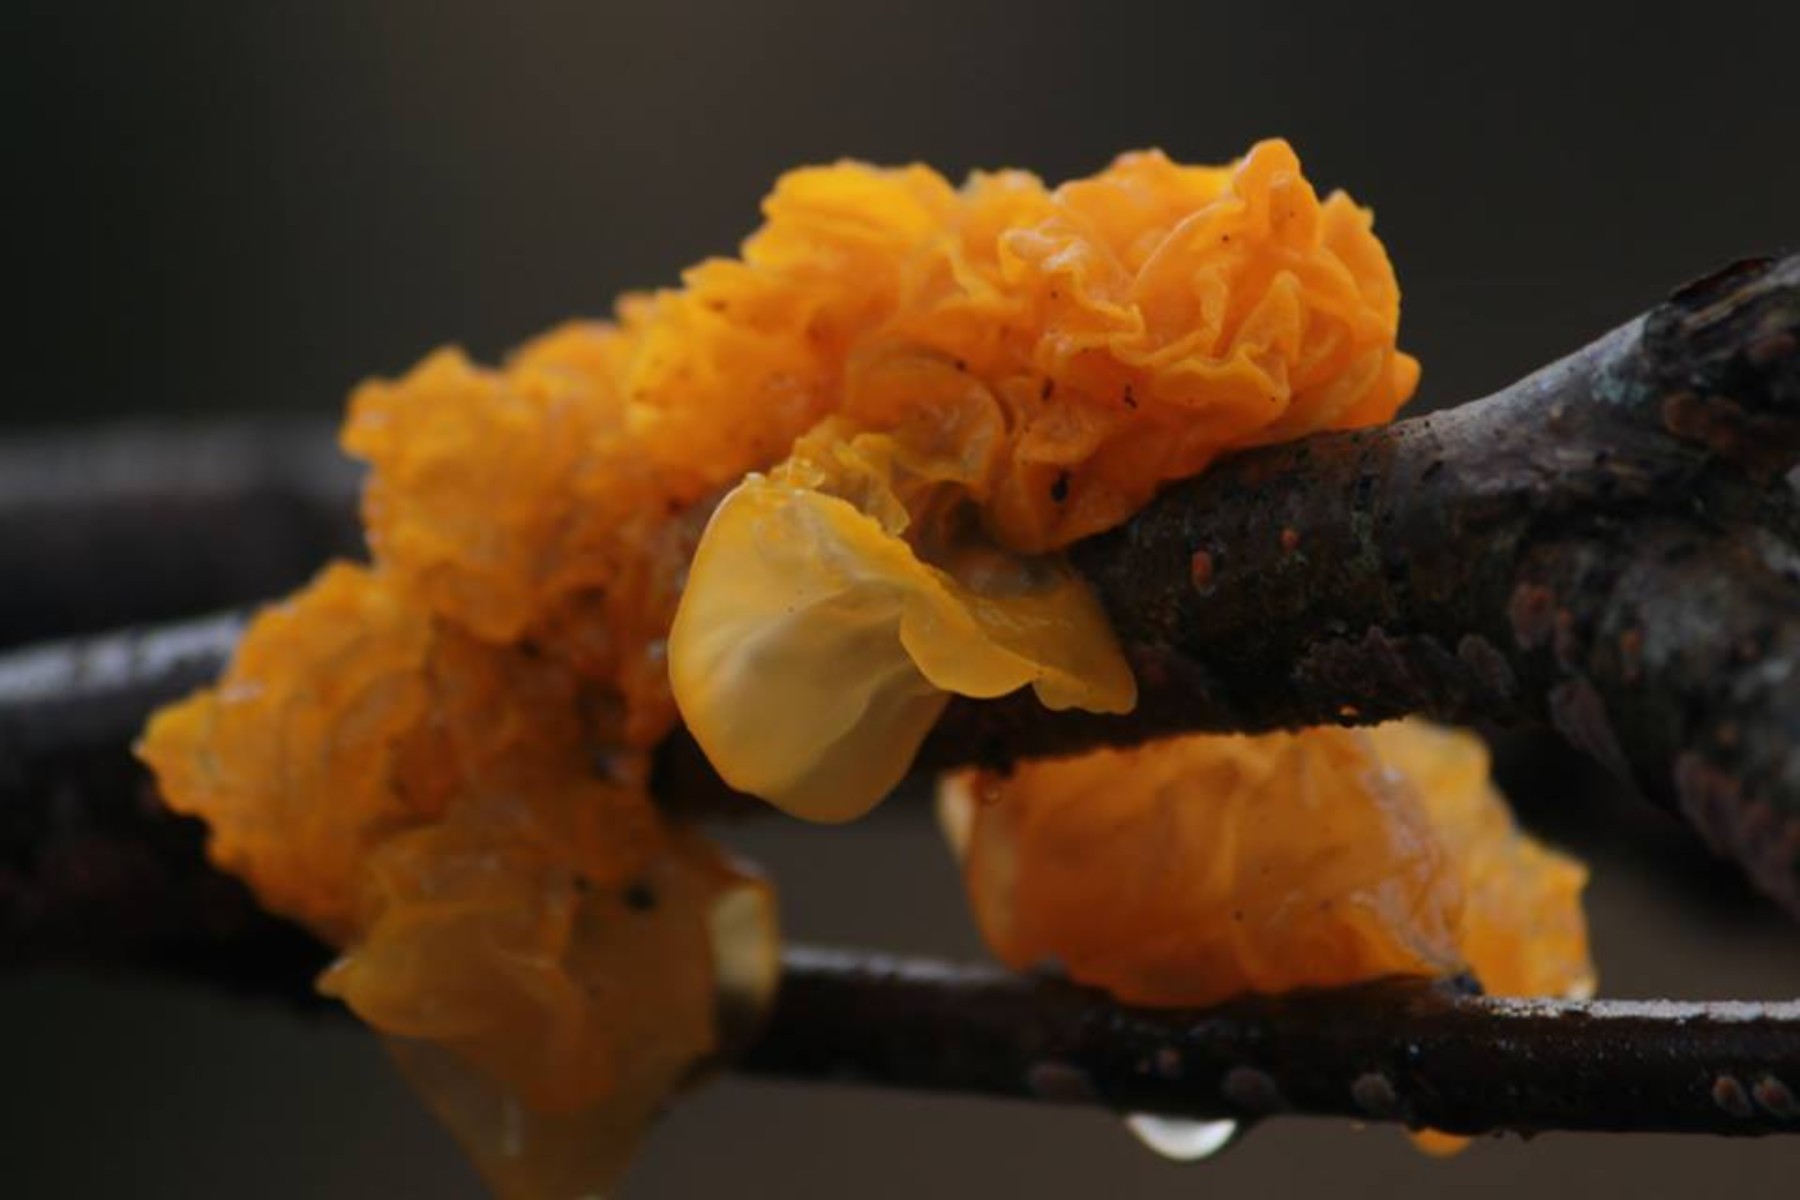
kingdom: Fungi
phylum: Basidiomycota
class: Tremellomycetes
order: Tremellales
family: Tremellaceae
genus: Tremella
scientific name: Tremella mesenterica
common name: gul bævresvamp
